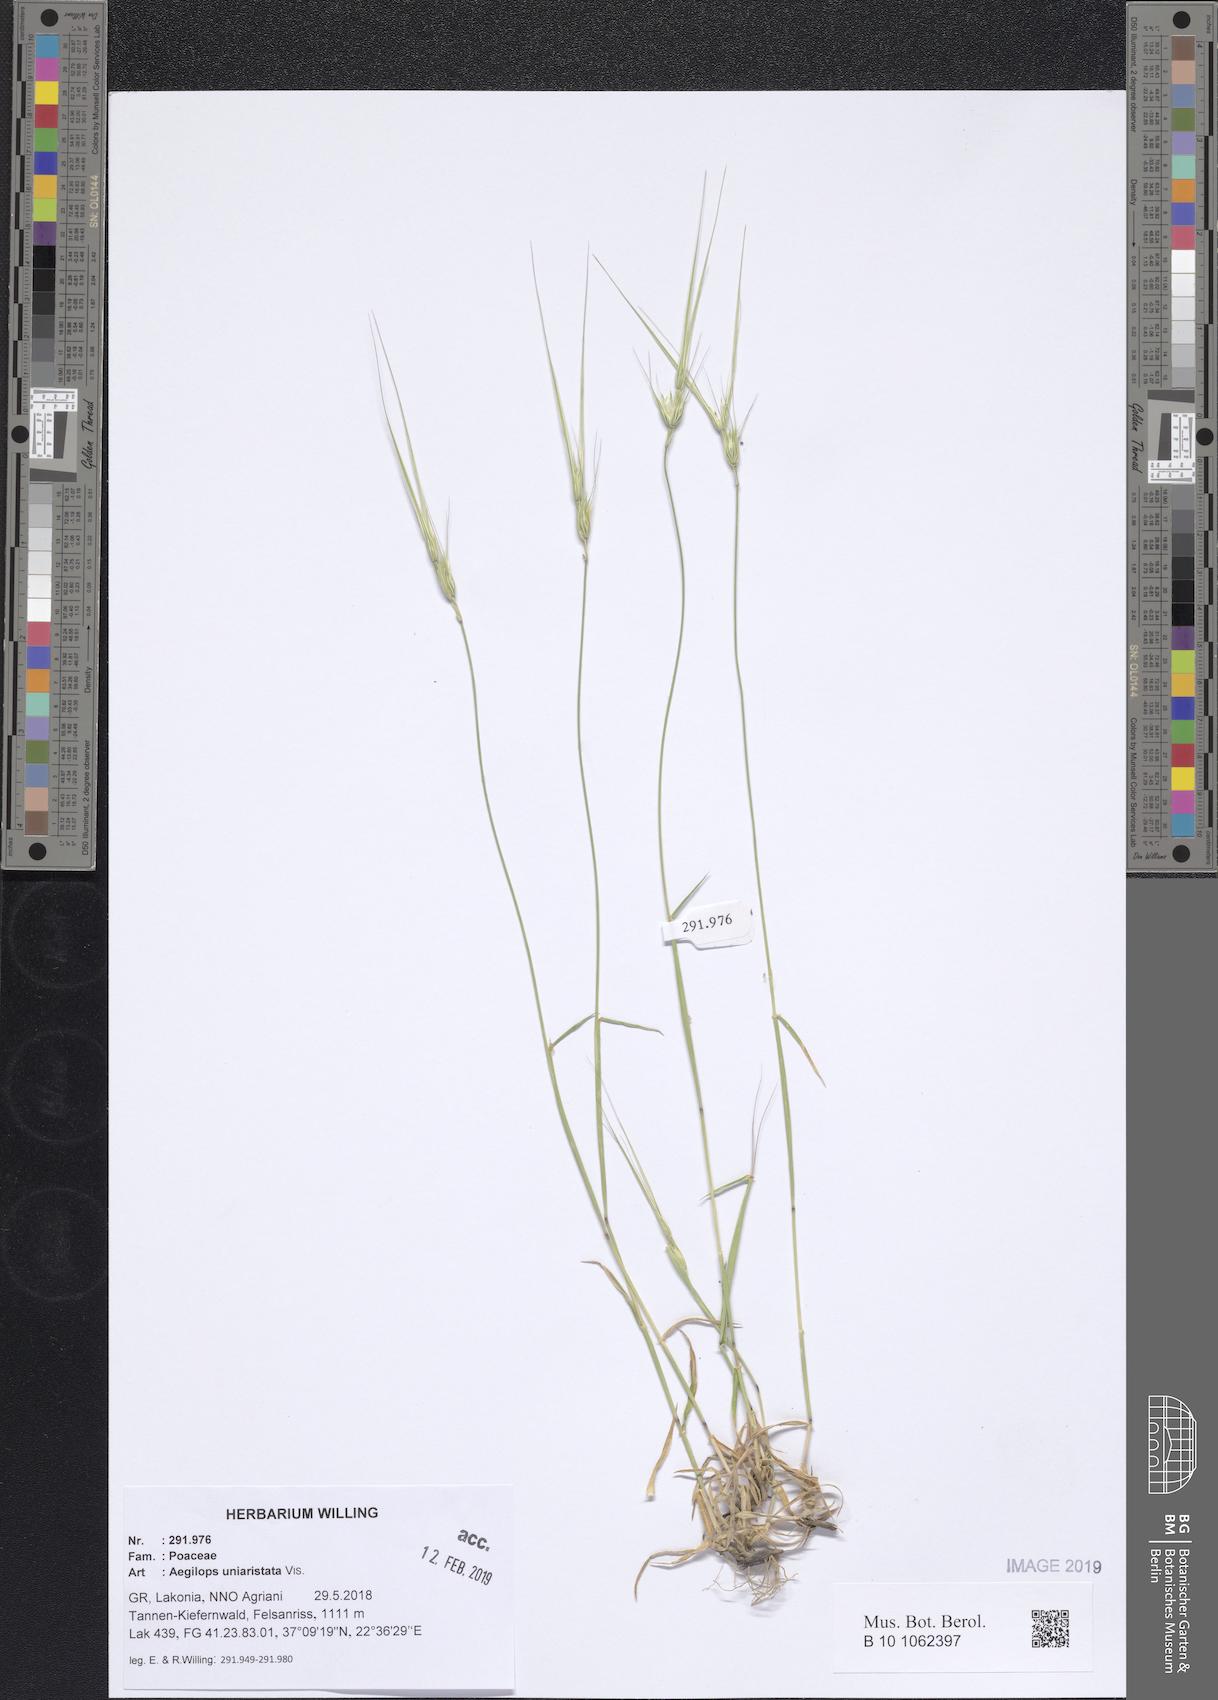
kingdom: Plantae
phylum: Tracheophyta
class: Liliopsida
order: Poales
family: Poaceae
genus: Aegilops
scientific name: Aegilops uniaristata
